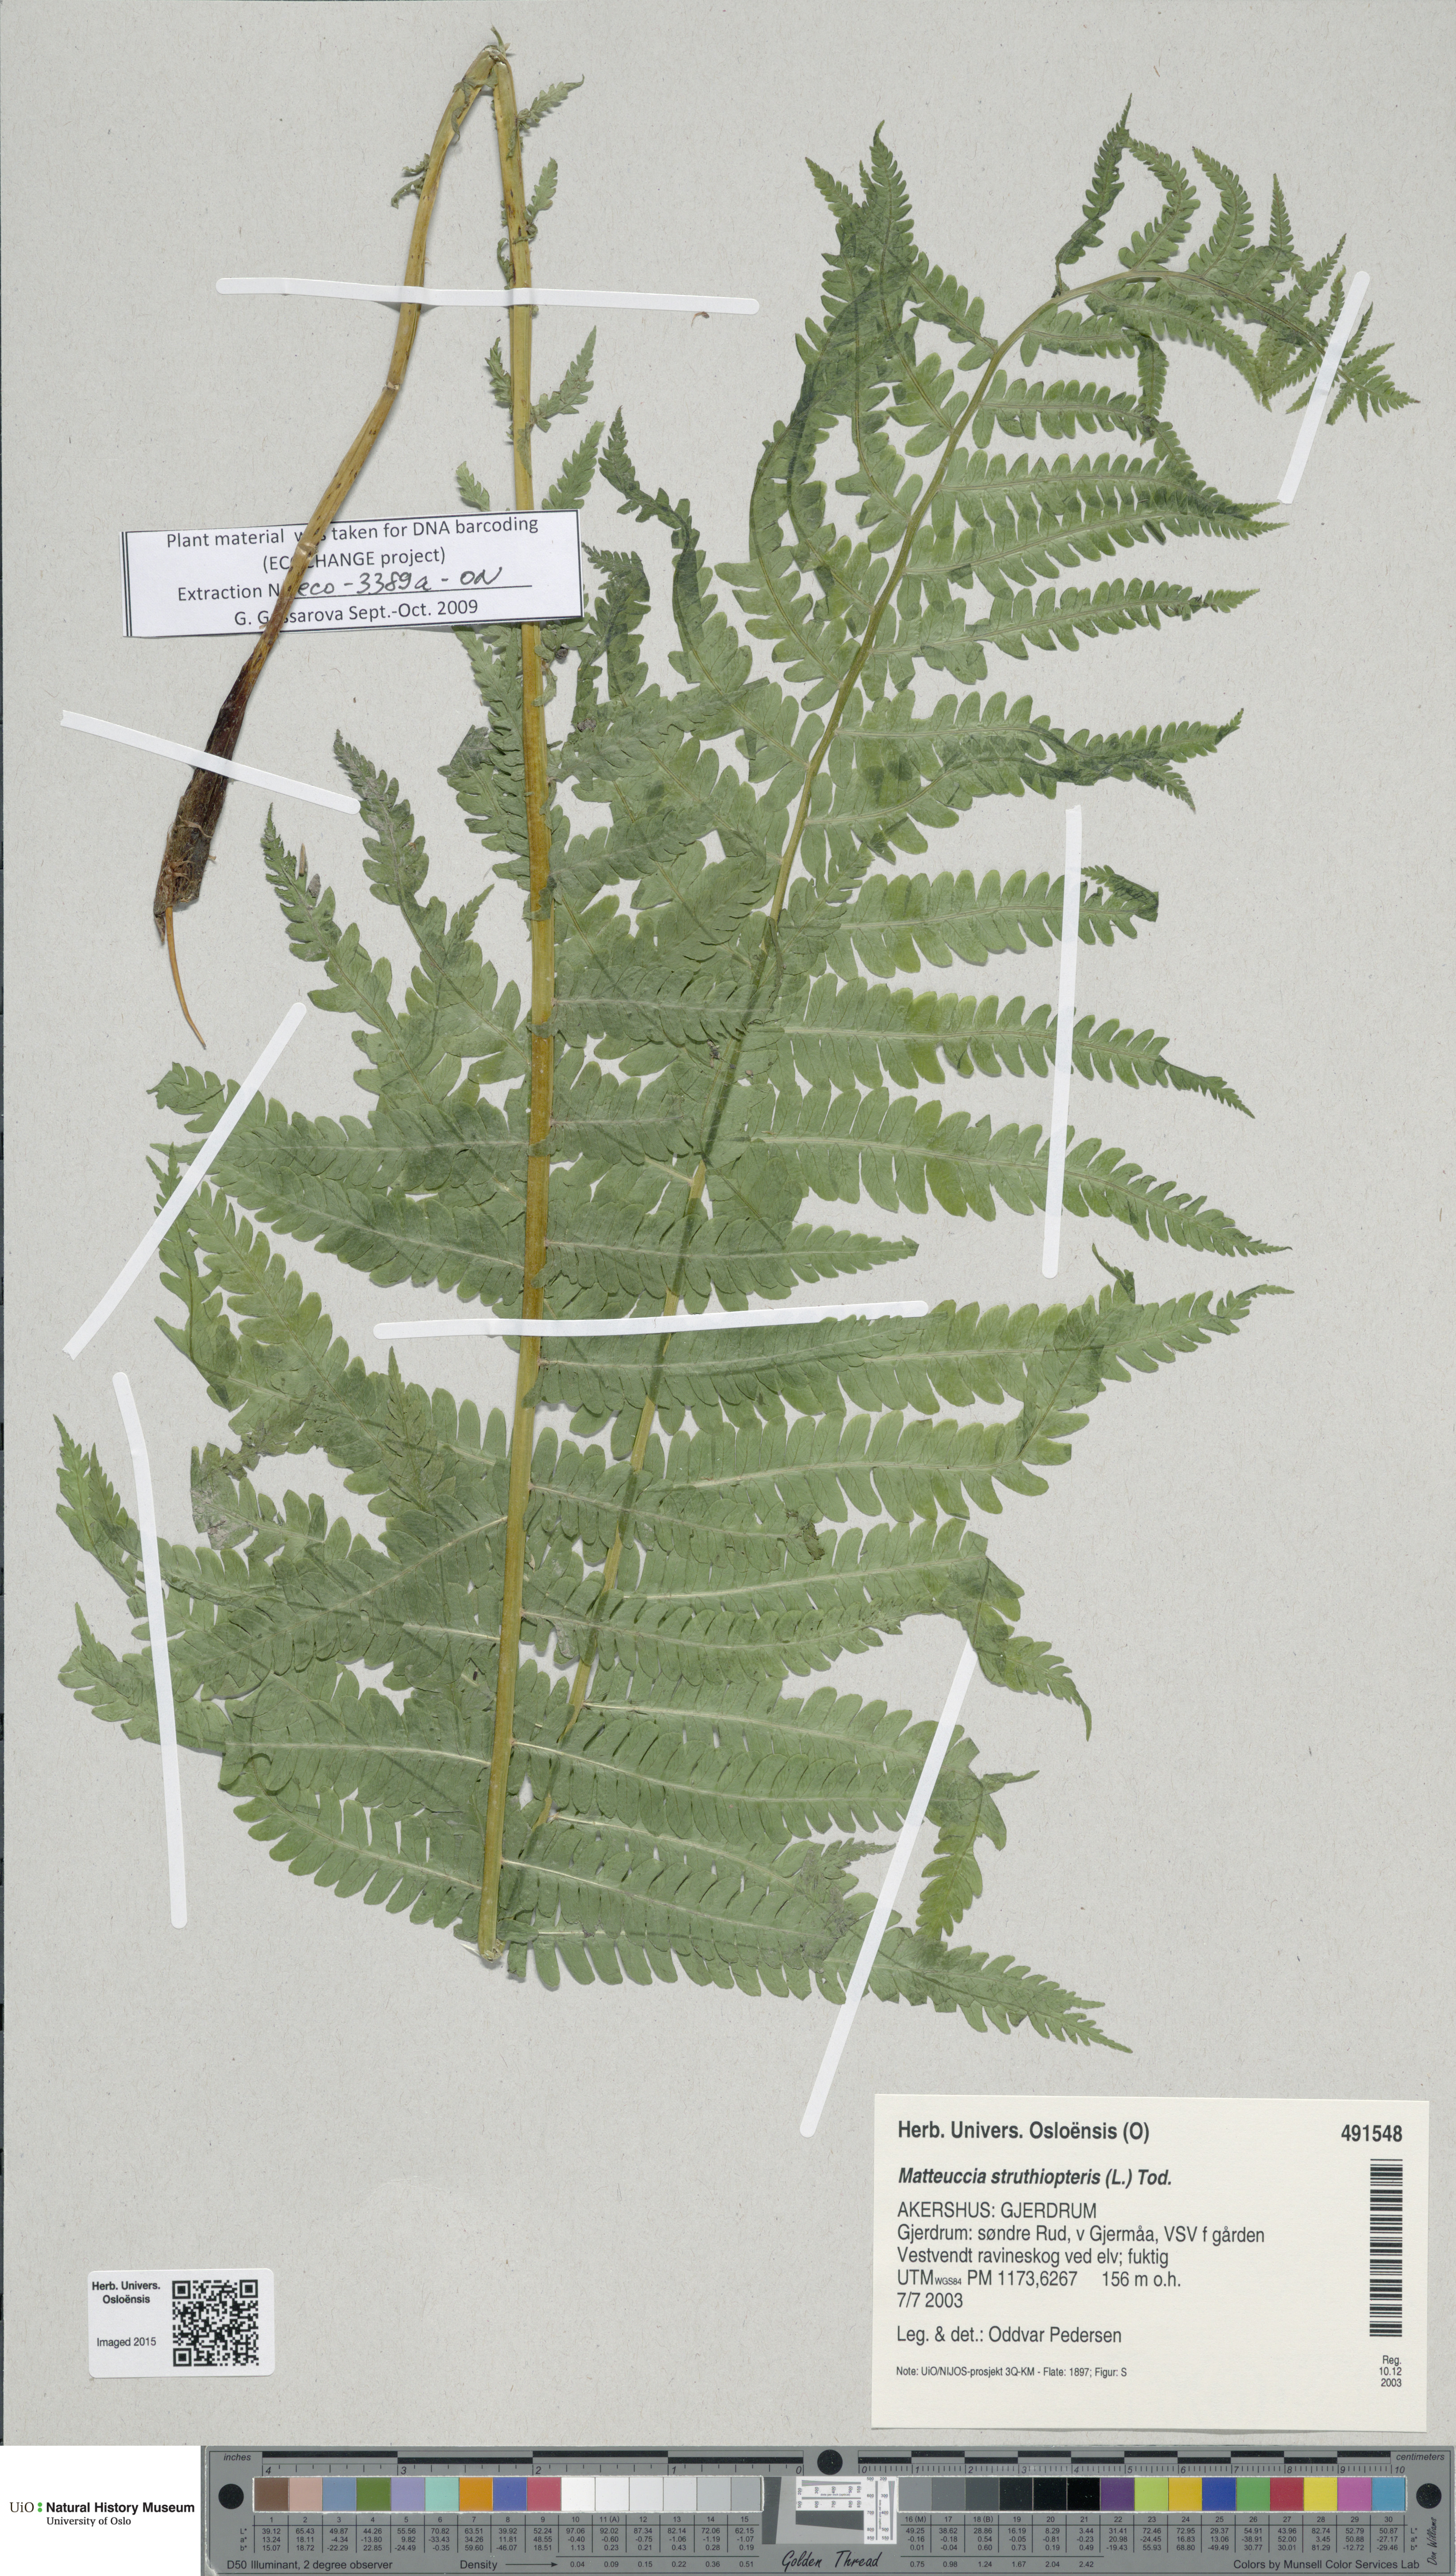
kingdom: Plantae
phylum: Tracheophyta
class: Polypodiopsida
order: Polypodiales
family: Onocleaceae
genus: Matteuccia
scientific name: Matteuccia struthiopteris
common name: Ostrich fern
